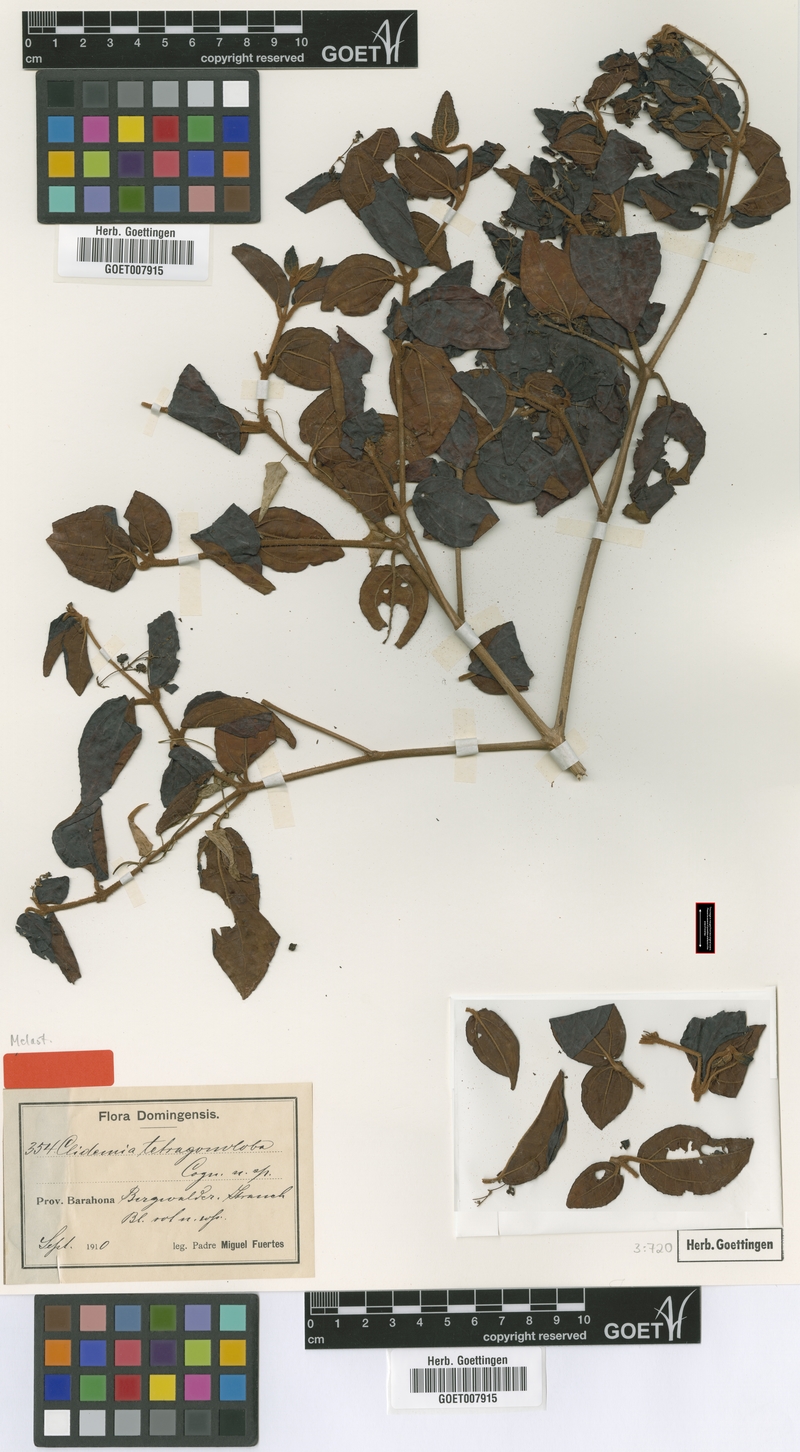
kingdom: Plantae
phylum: Tracheophyta
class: Magnoliopsida
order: Myrtales
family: Melastomataceae
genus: Miconia
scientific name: Miconia tetragonoloba
